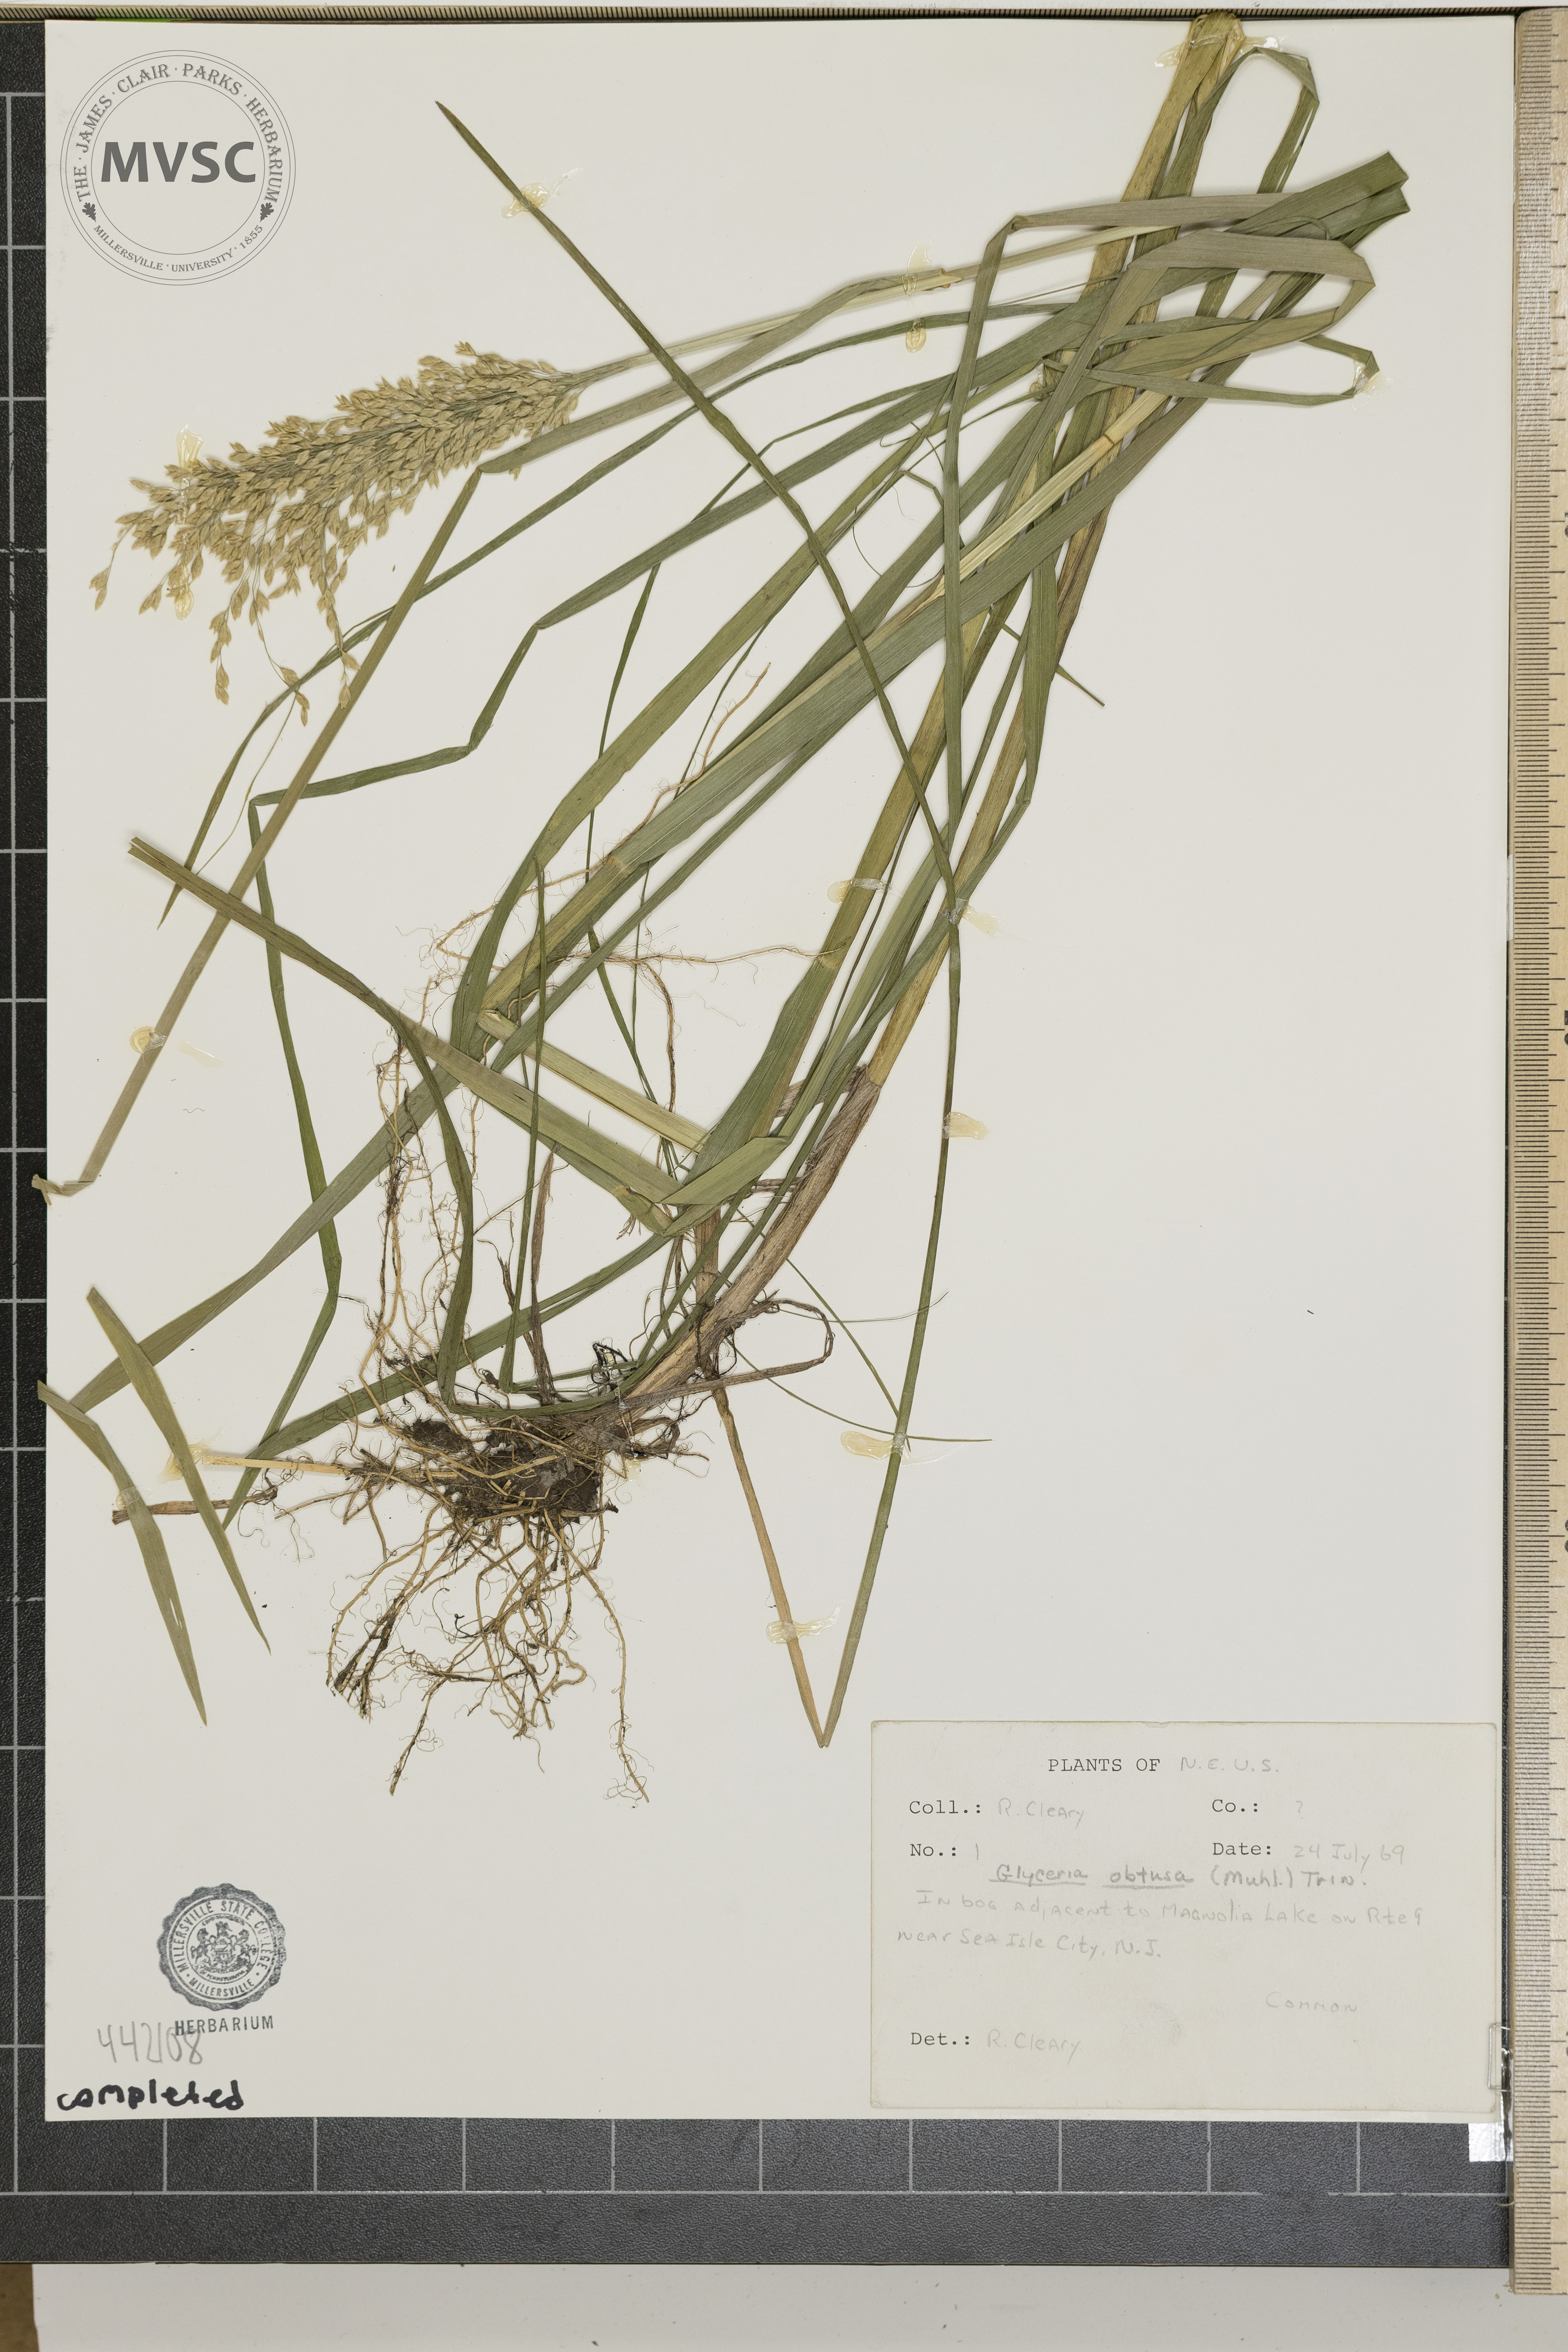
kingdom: Plantae
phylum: Tracheophyta
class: Liliopsida
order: Poales
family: Poaceae
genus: Glyceria
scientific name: Glyceria obtusa
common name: Atlantic mannagrass
